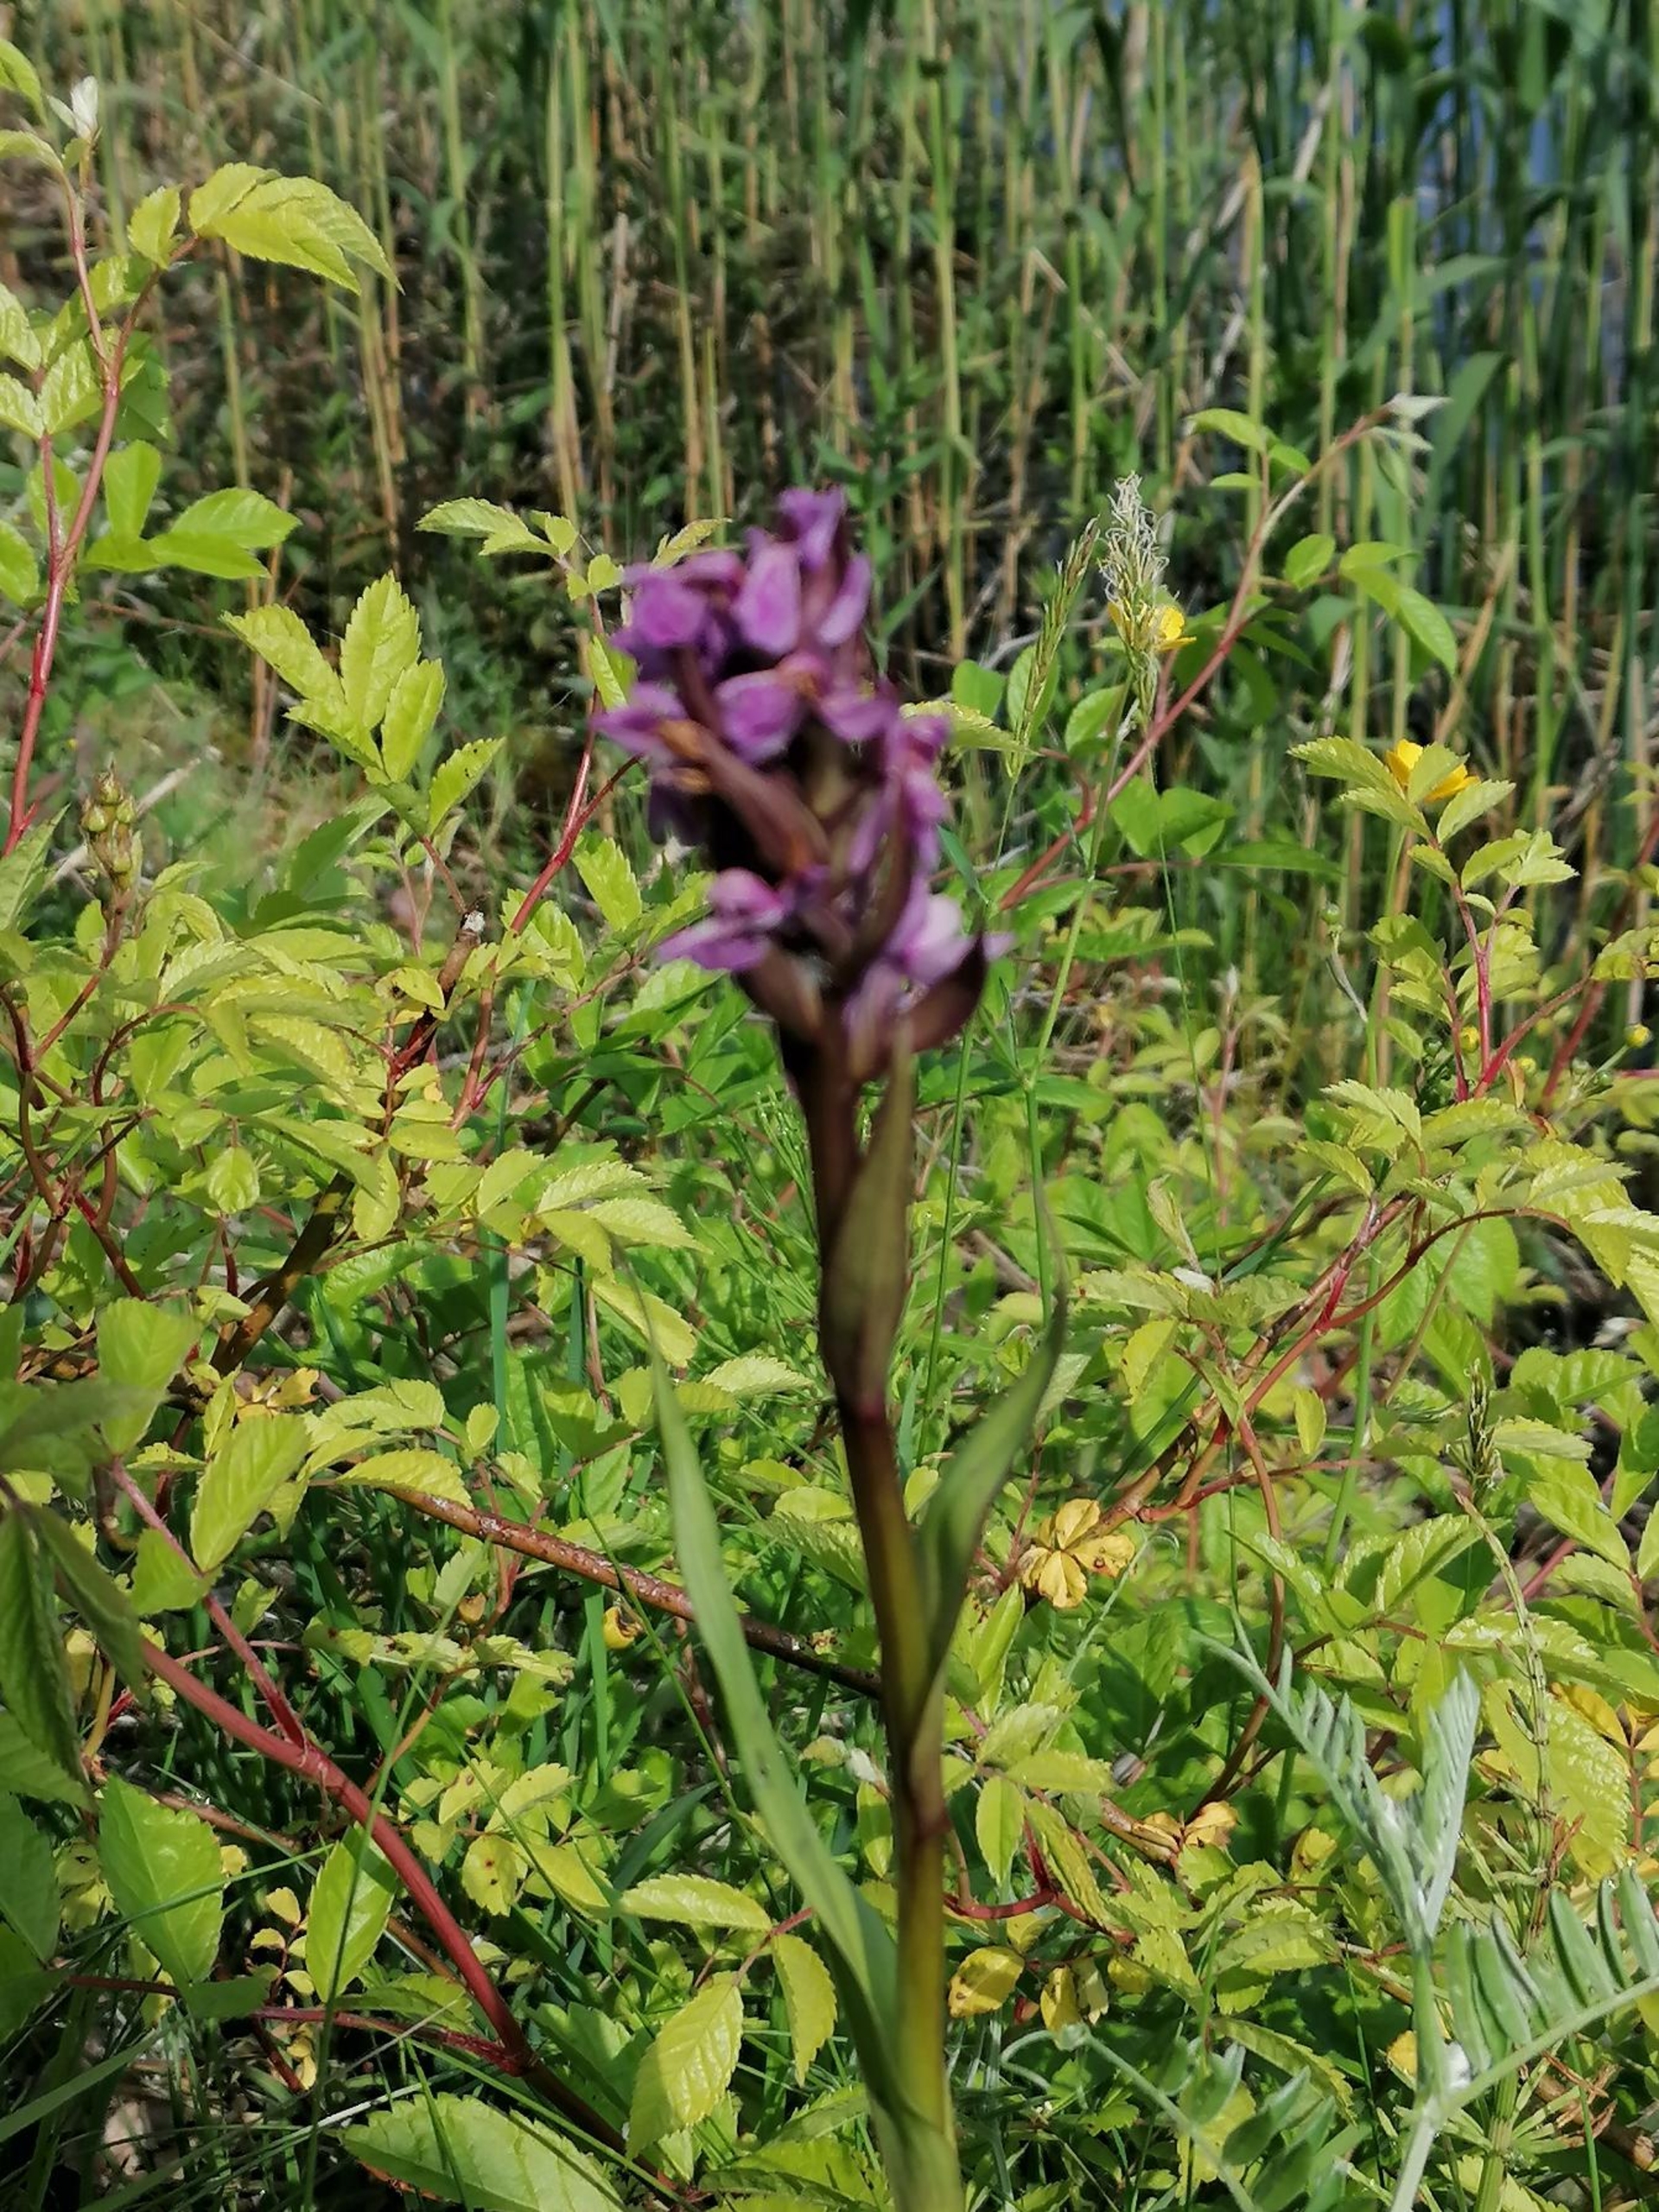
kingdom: Plantae
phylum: Tracheophyta
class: Liliopsida
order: Asparagales
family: Orchidaceae
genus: Dactylorhiza
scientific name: Dactylorhiza majalis
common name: Maj-gøgeurt
